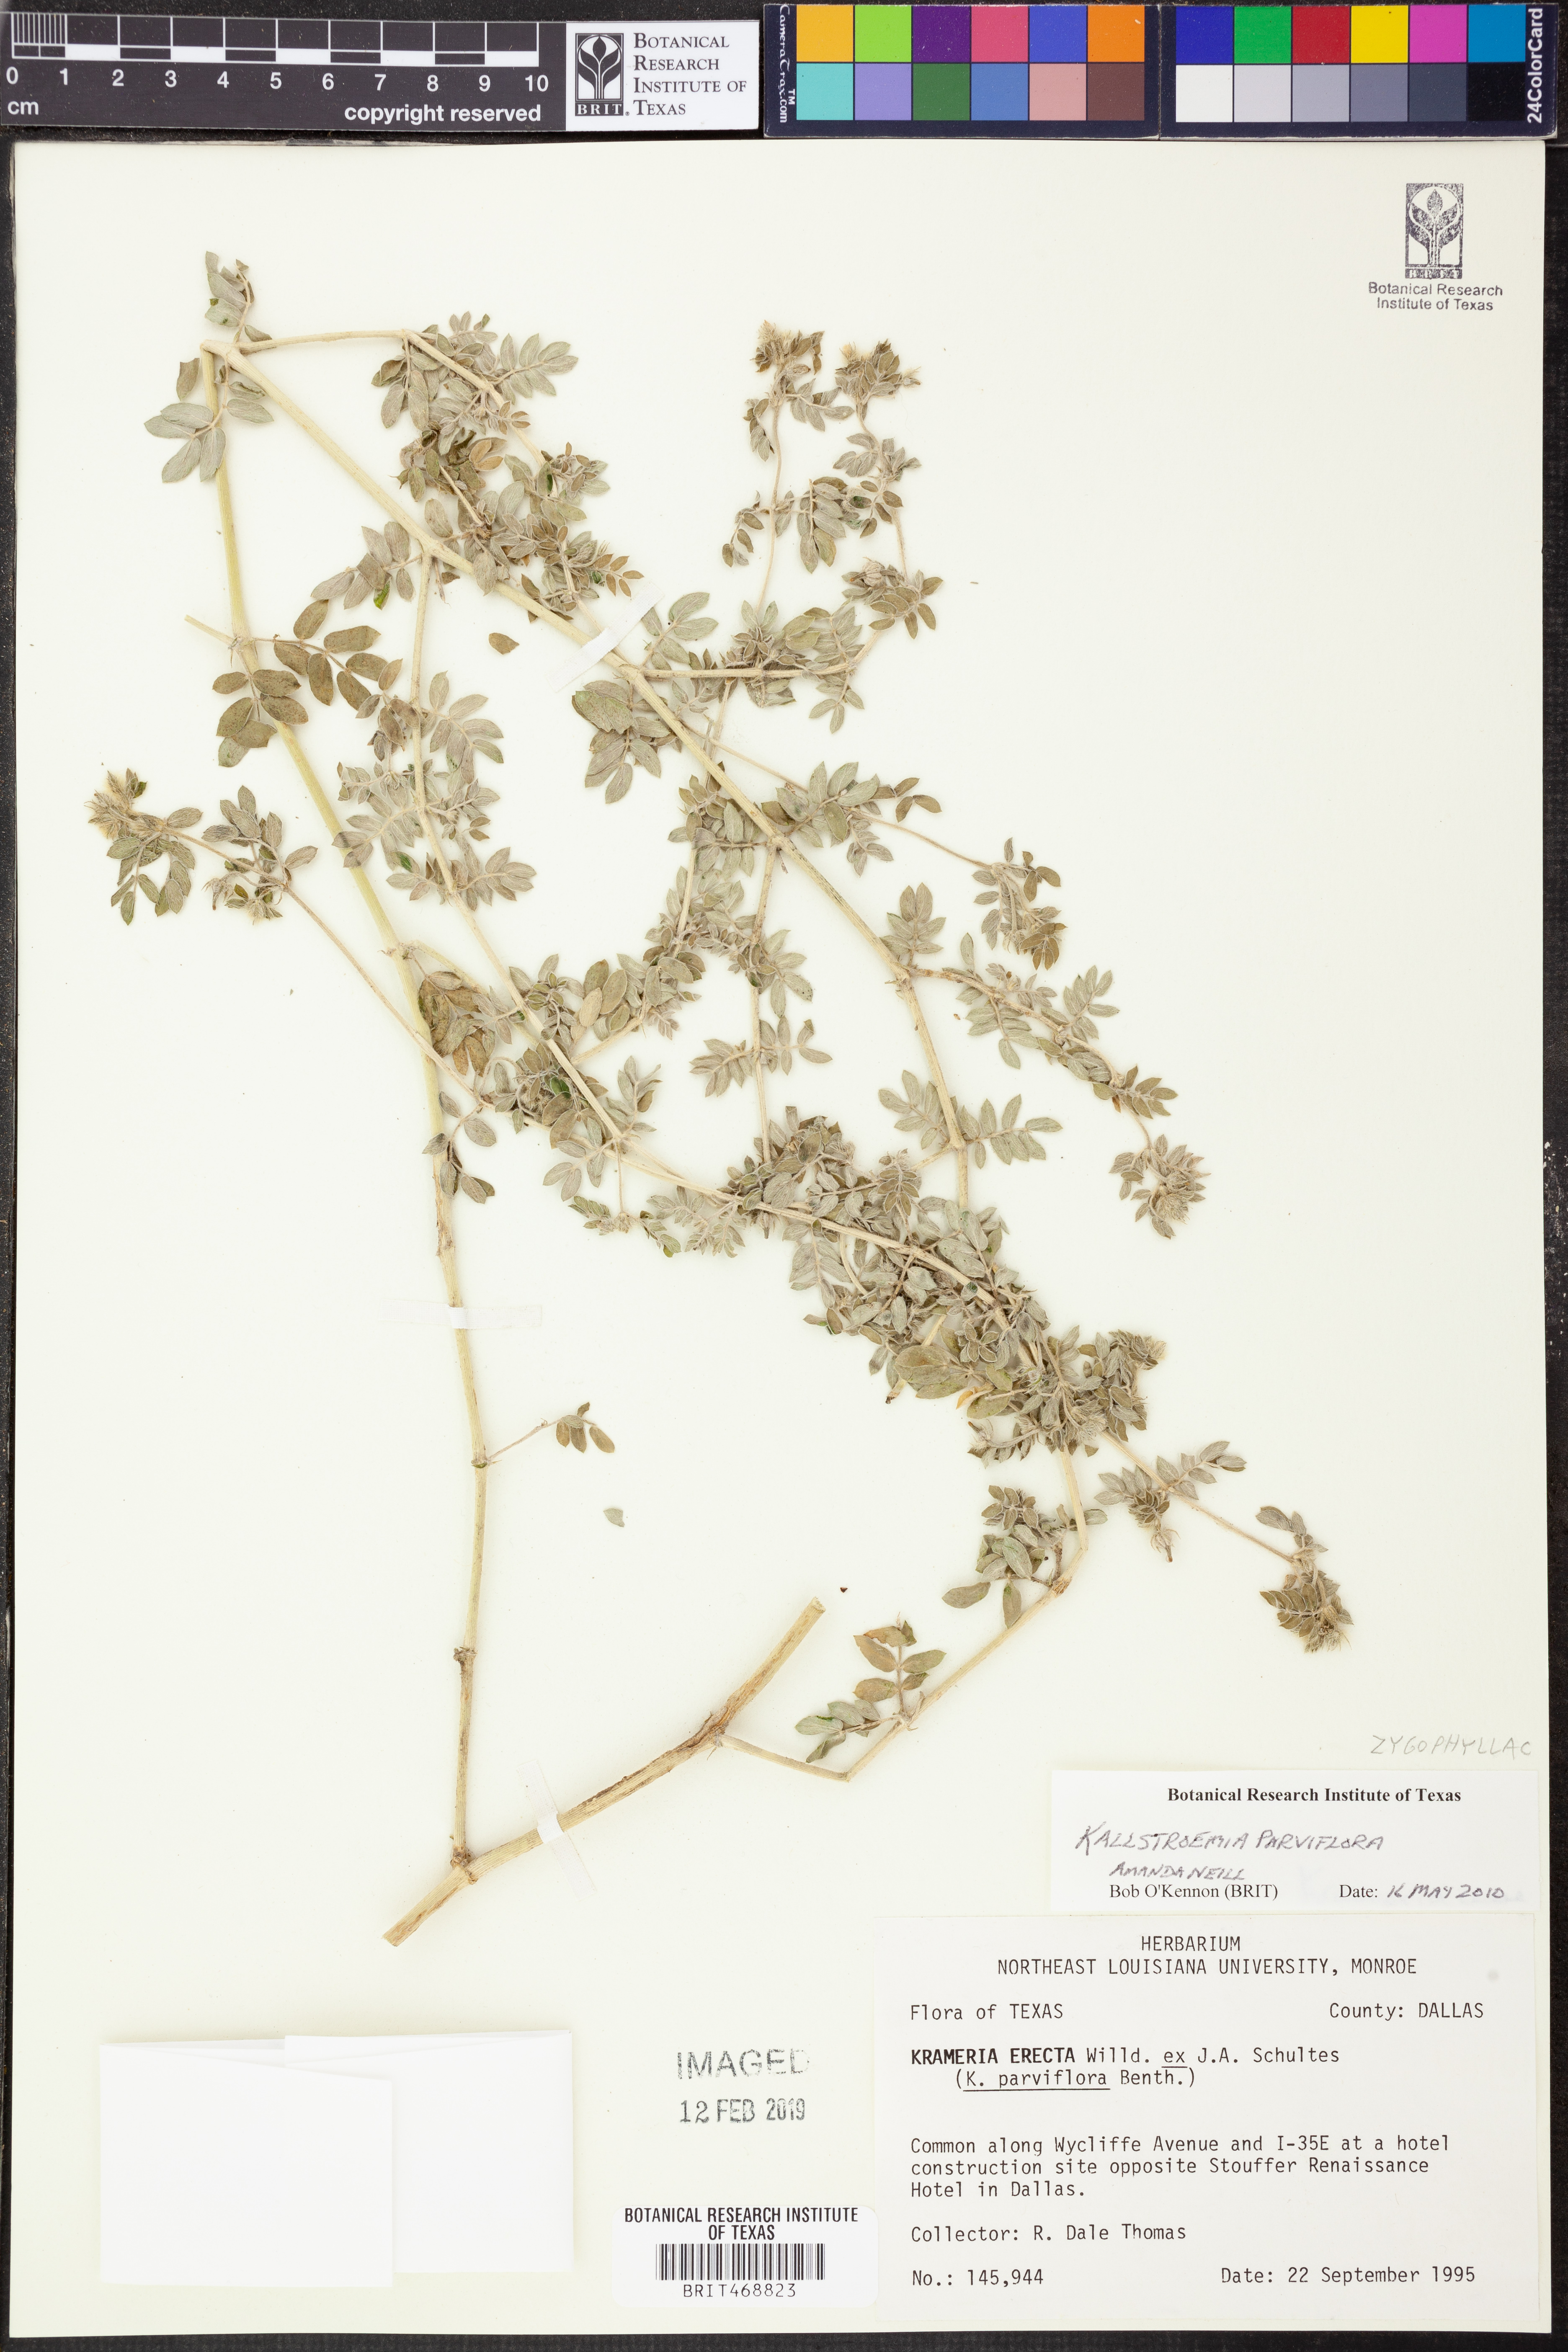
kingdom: Plantae
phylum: Tracheophyta
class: Magnoliopsida
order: Zygophyllales
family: Zygophyllaceae
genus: Kallstroemia
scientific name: Kallstroemia parviflora
